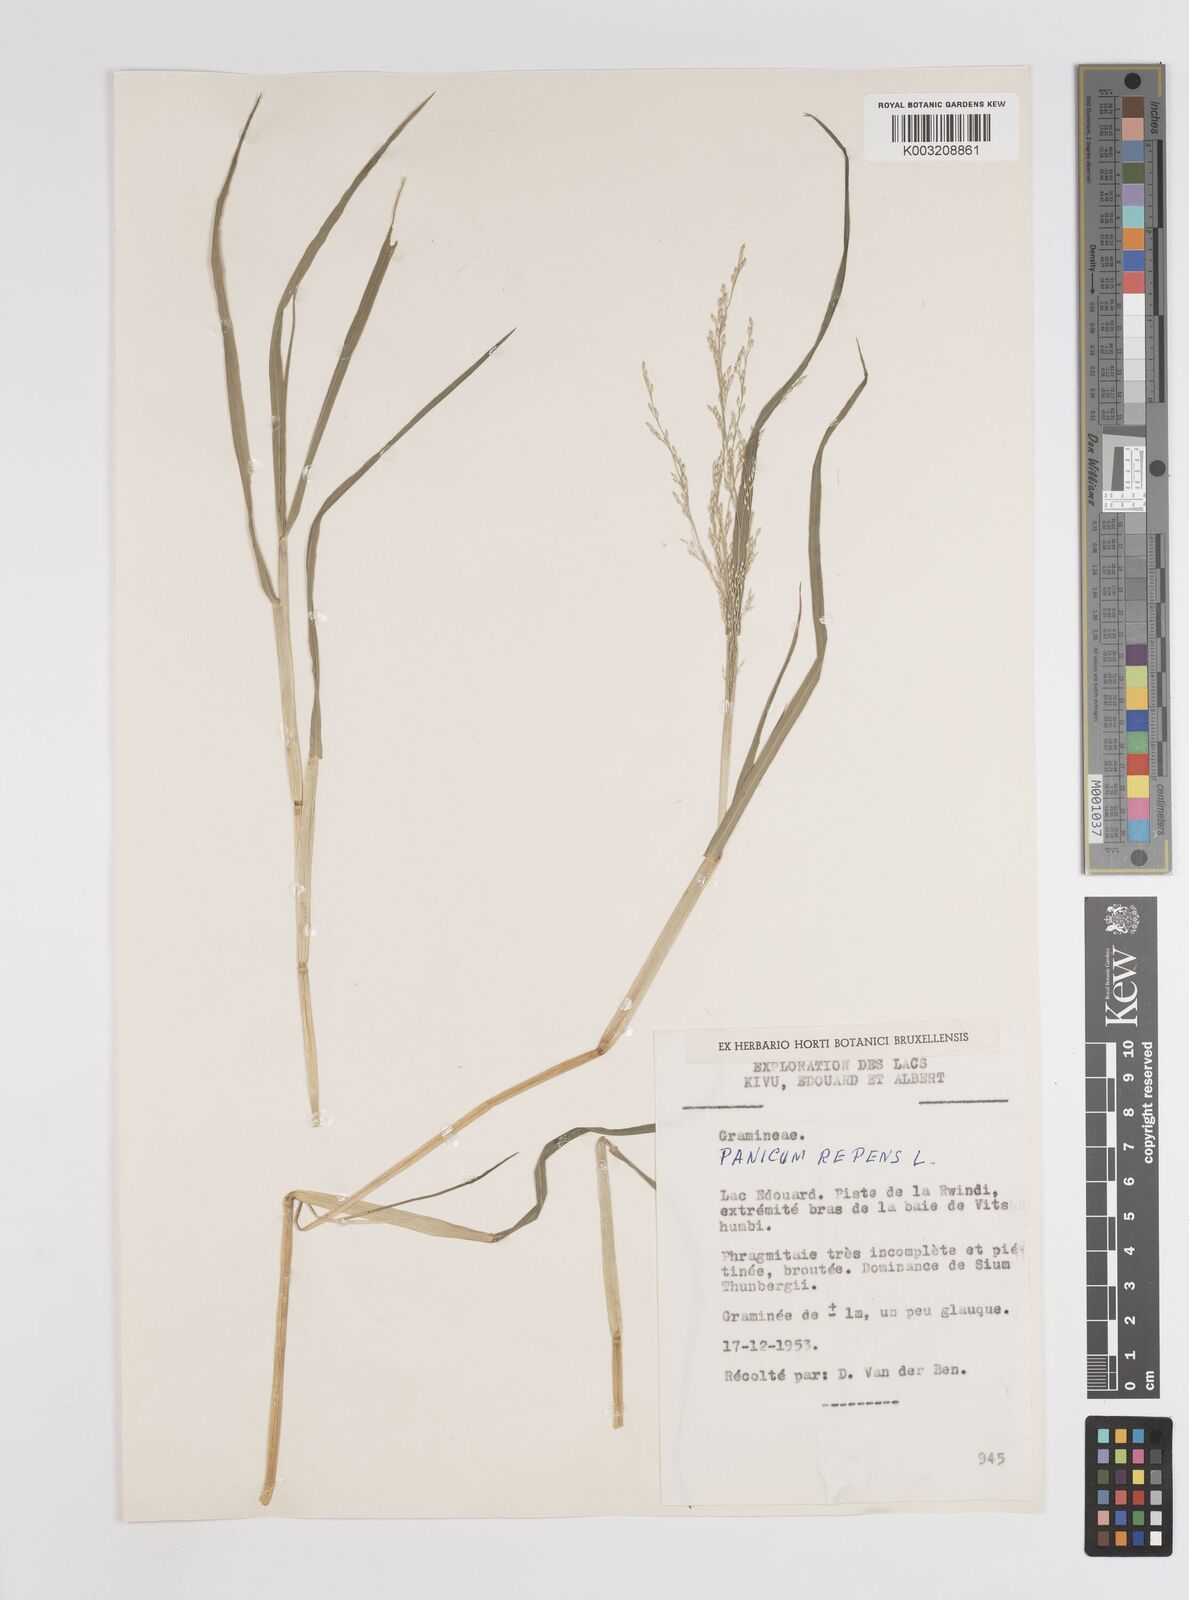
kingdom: Plantae
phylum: Tracheophyta
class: Liliopsida
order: Poales
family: Poaceae
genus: Panicum
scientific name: Panicum hygrocharis
